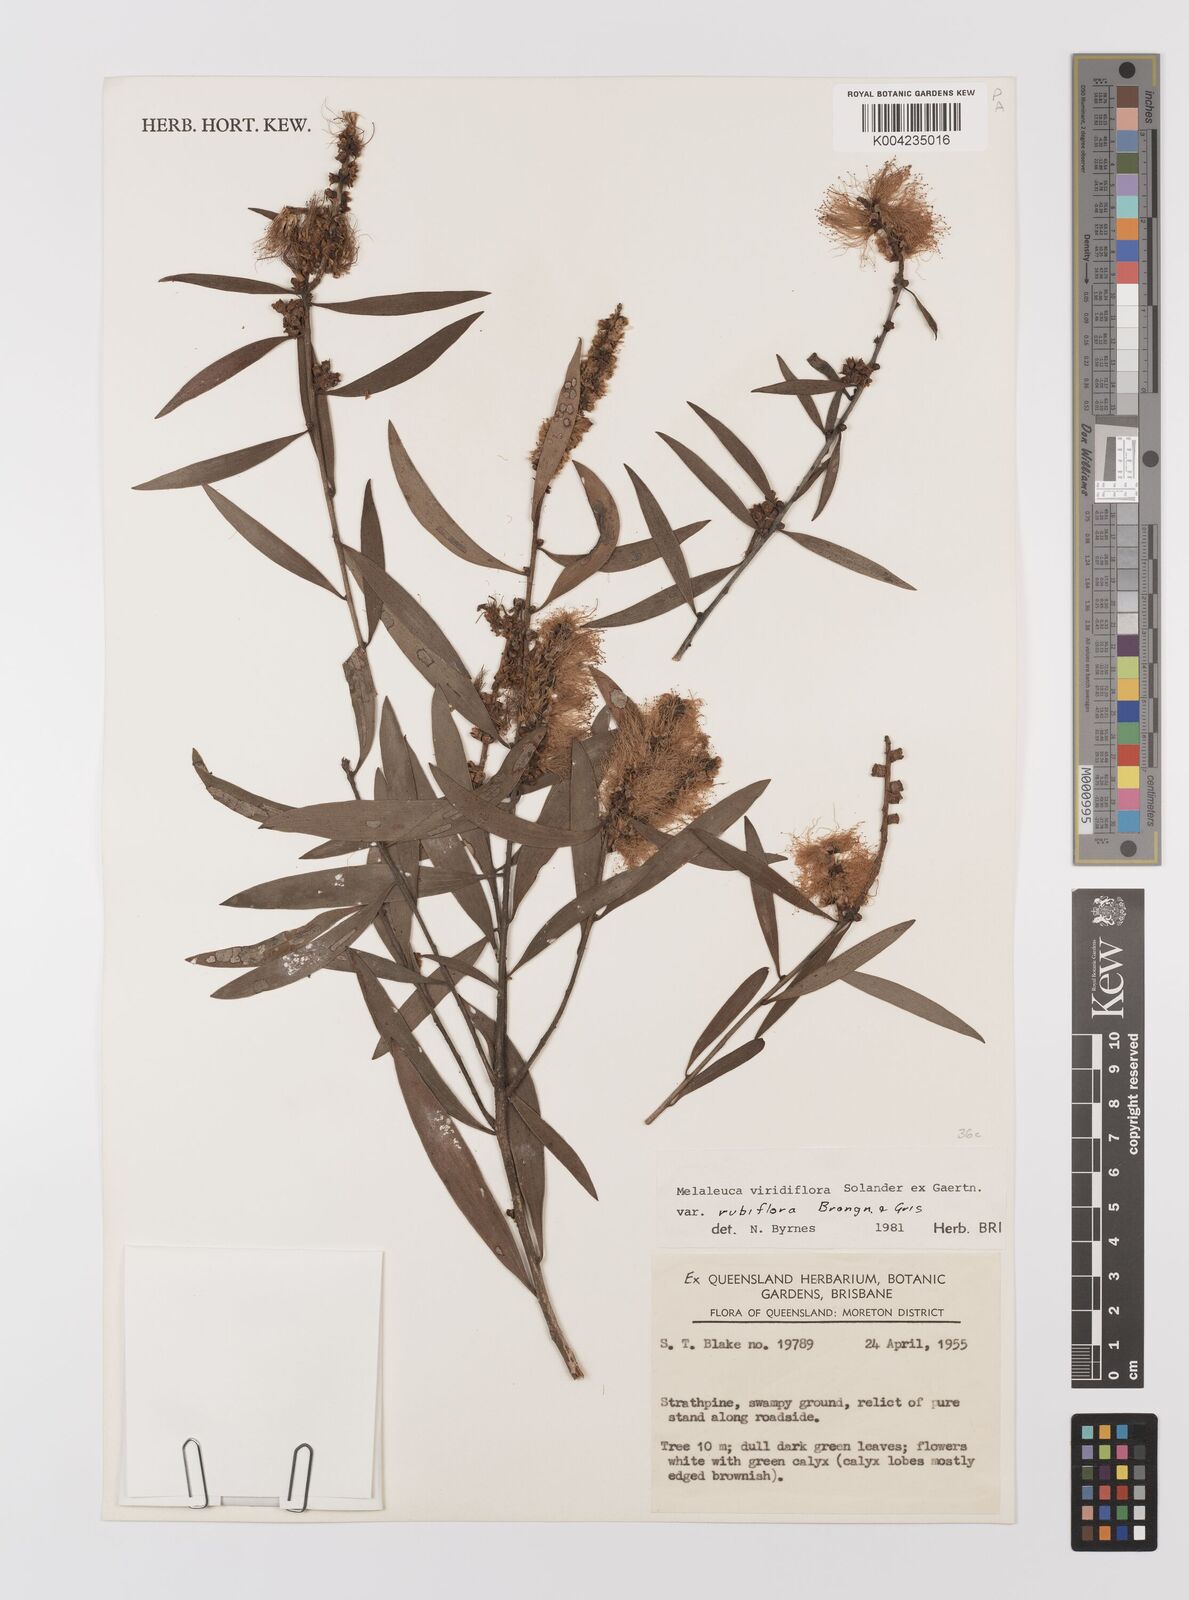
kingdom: Plantae
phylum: Tracheophyta
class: Magnoliopsida
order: Myrtales
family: Myrtaceae
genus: Melaleuca
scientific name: Melaleuca viridiflora
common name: Brown-leaved paperbark
